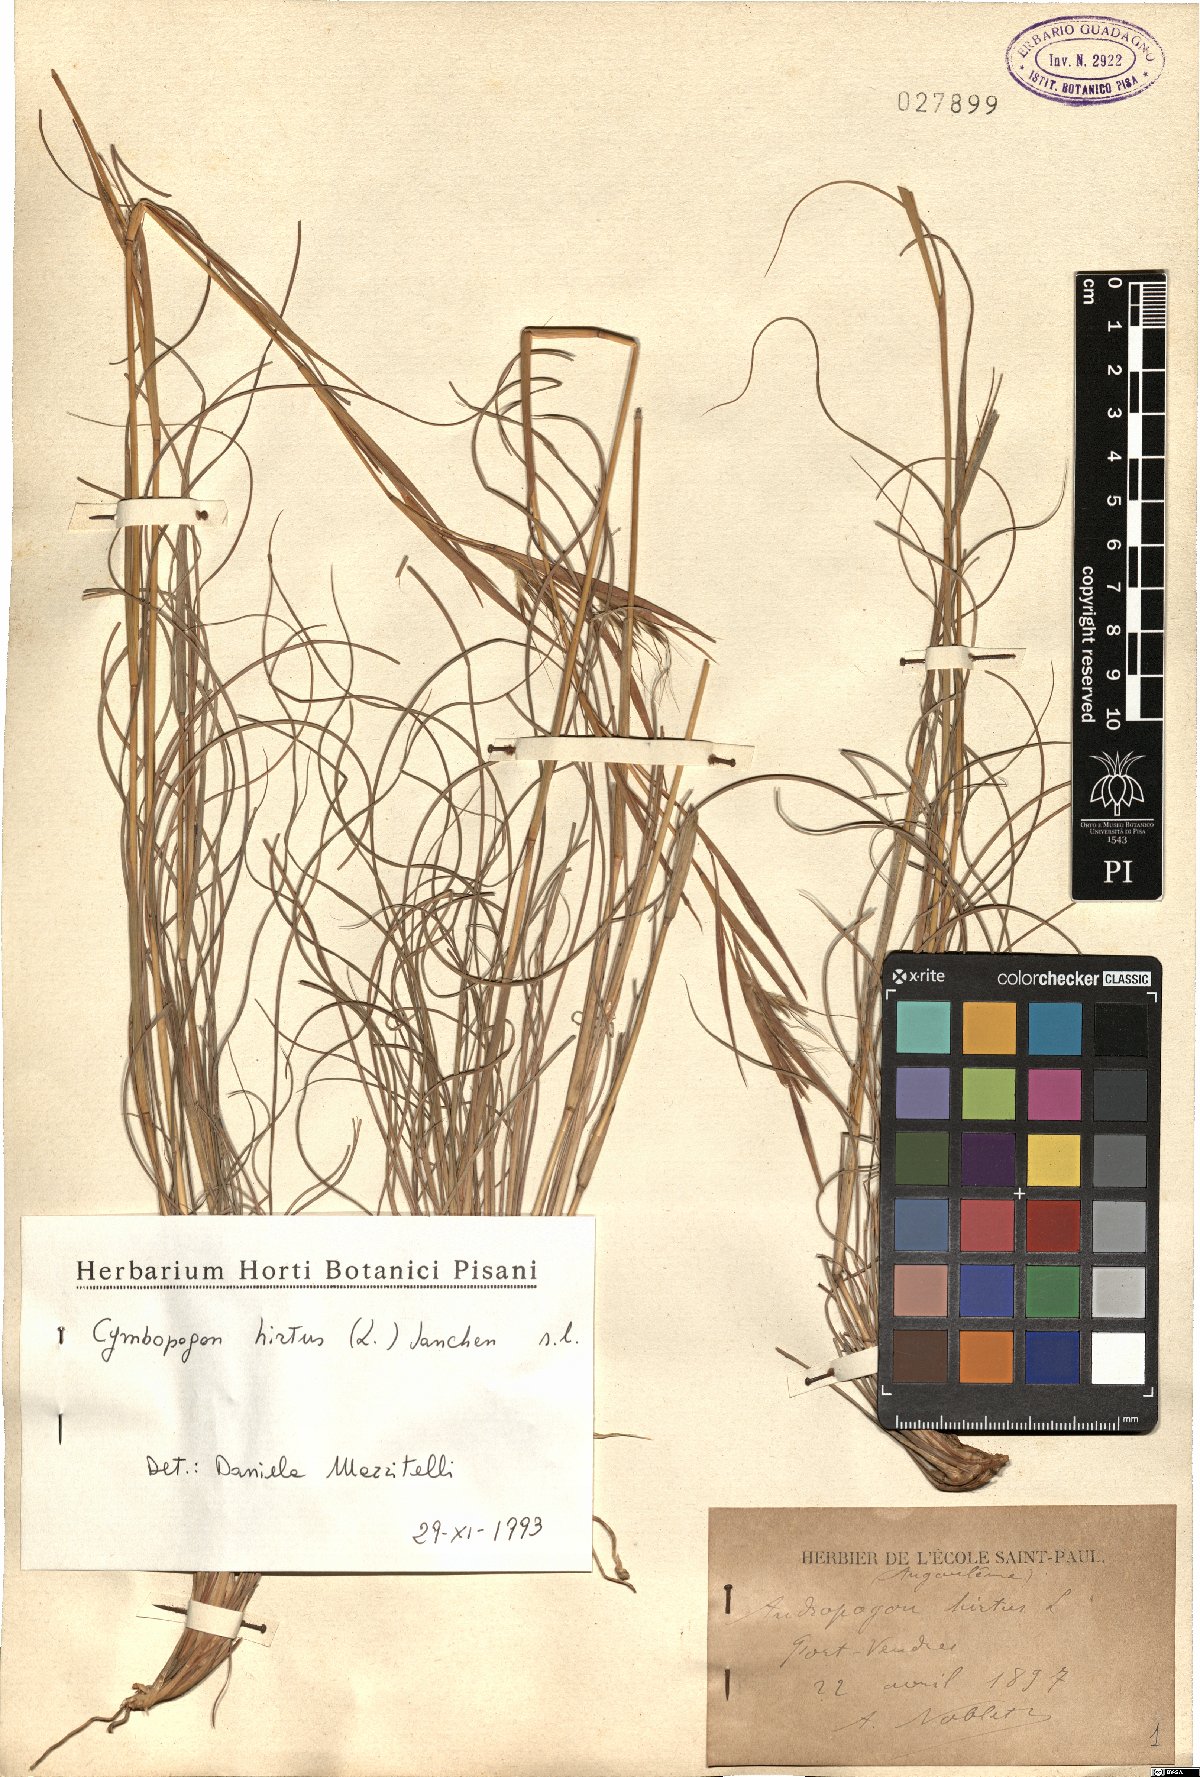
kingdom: Plantae
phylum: Tracheophyta
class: Liliopsida
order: Poales
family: Poaceae
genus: Hyparrhenia
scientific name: Hyparrhenia hirta
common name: Thatching grass
